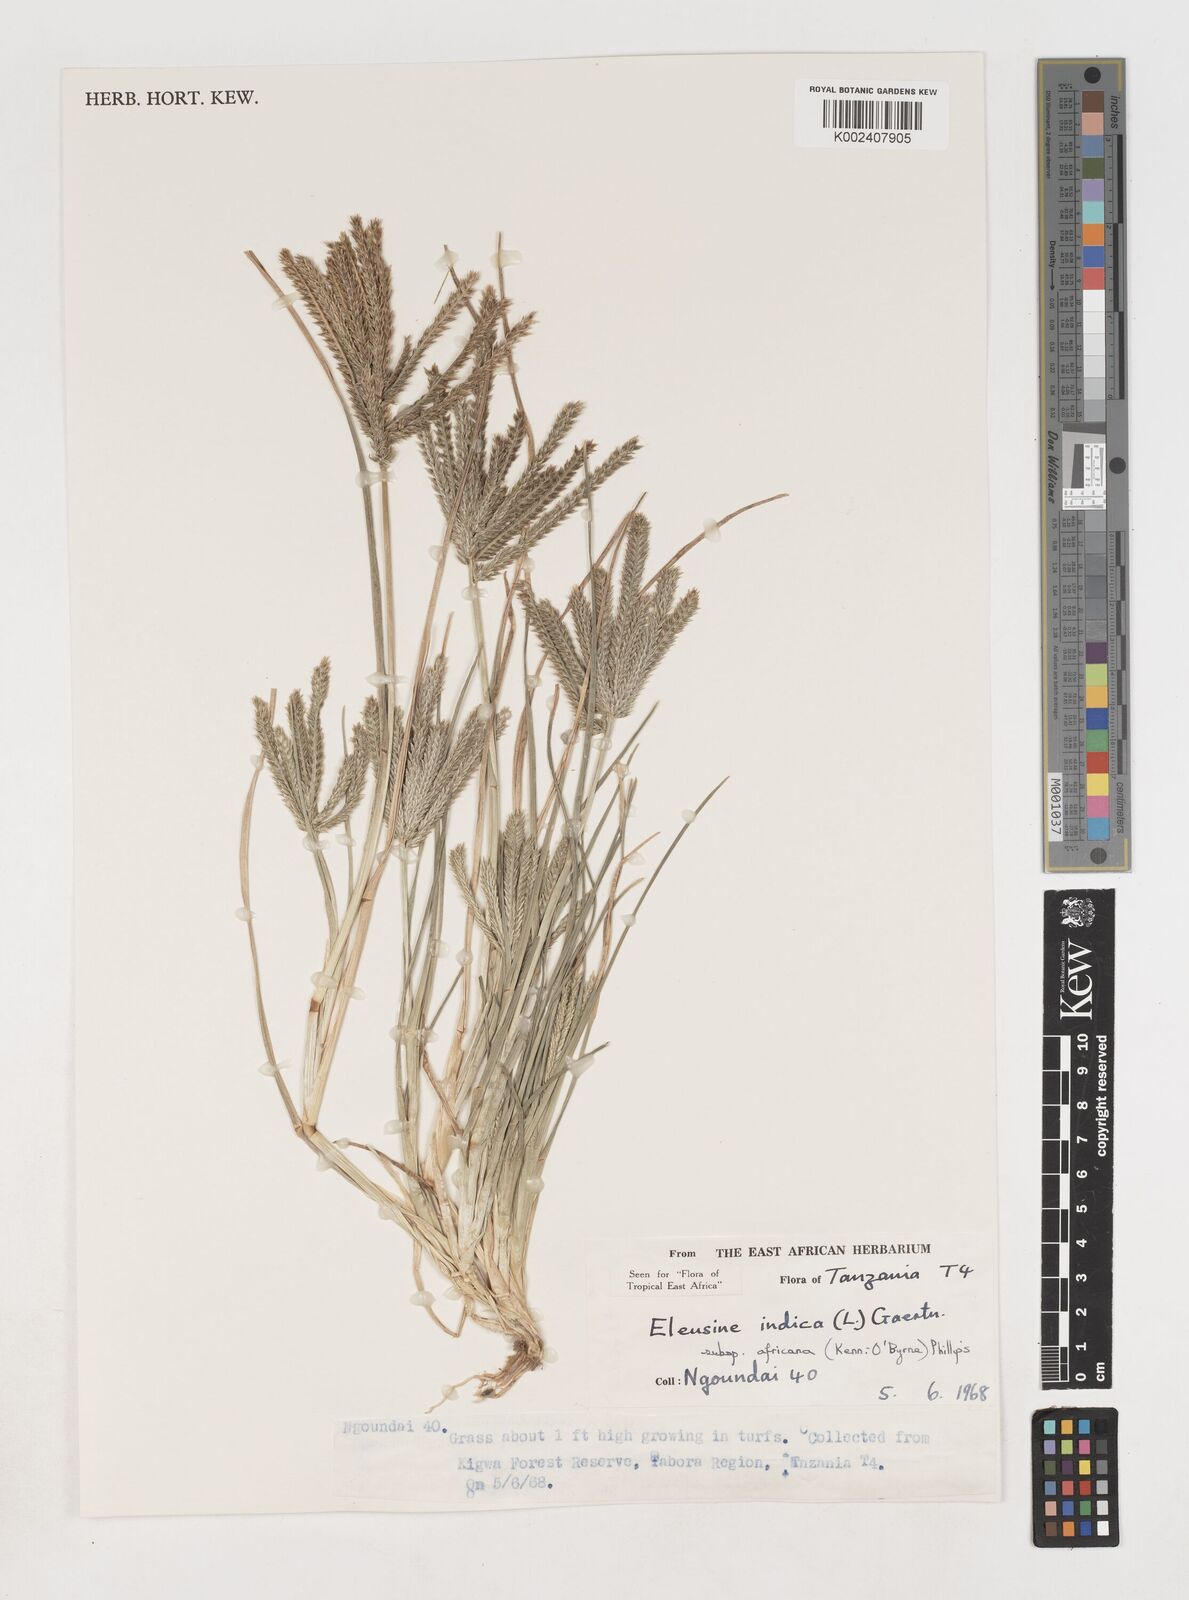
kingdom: Plantae
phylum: Tracheophyta
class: Liliopsida
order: Poales
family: Poaceae
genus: Eleusine
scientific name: Eleusine africana
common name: Wild african finger millet
